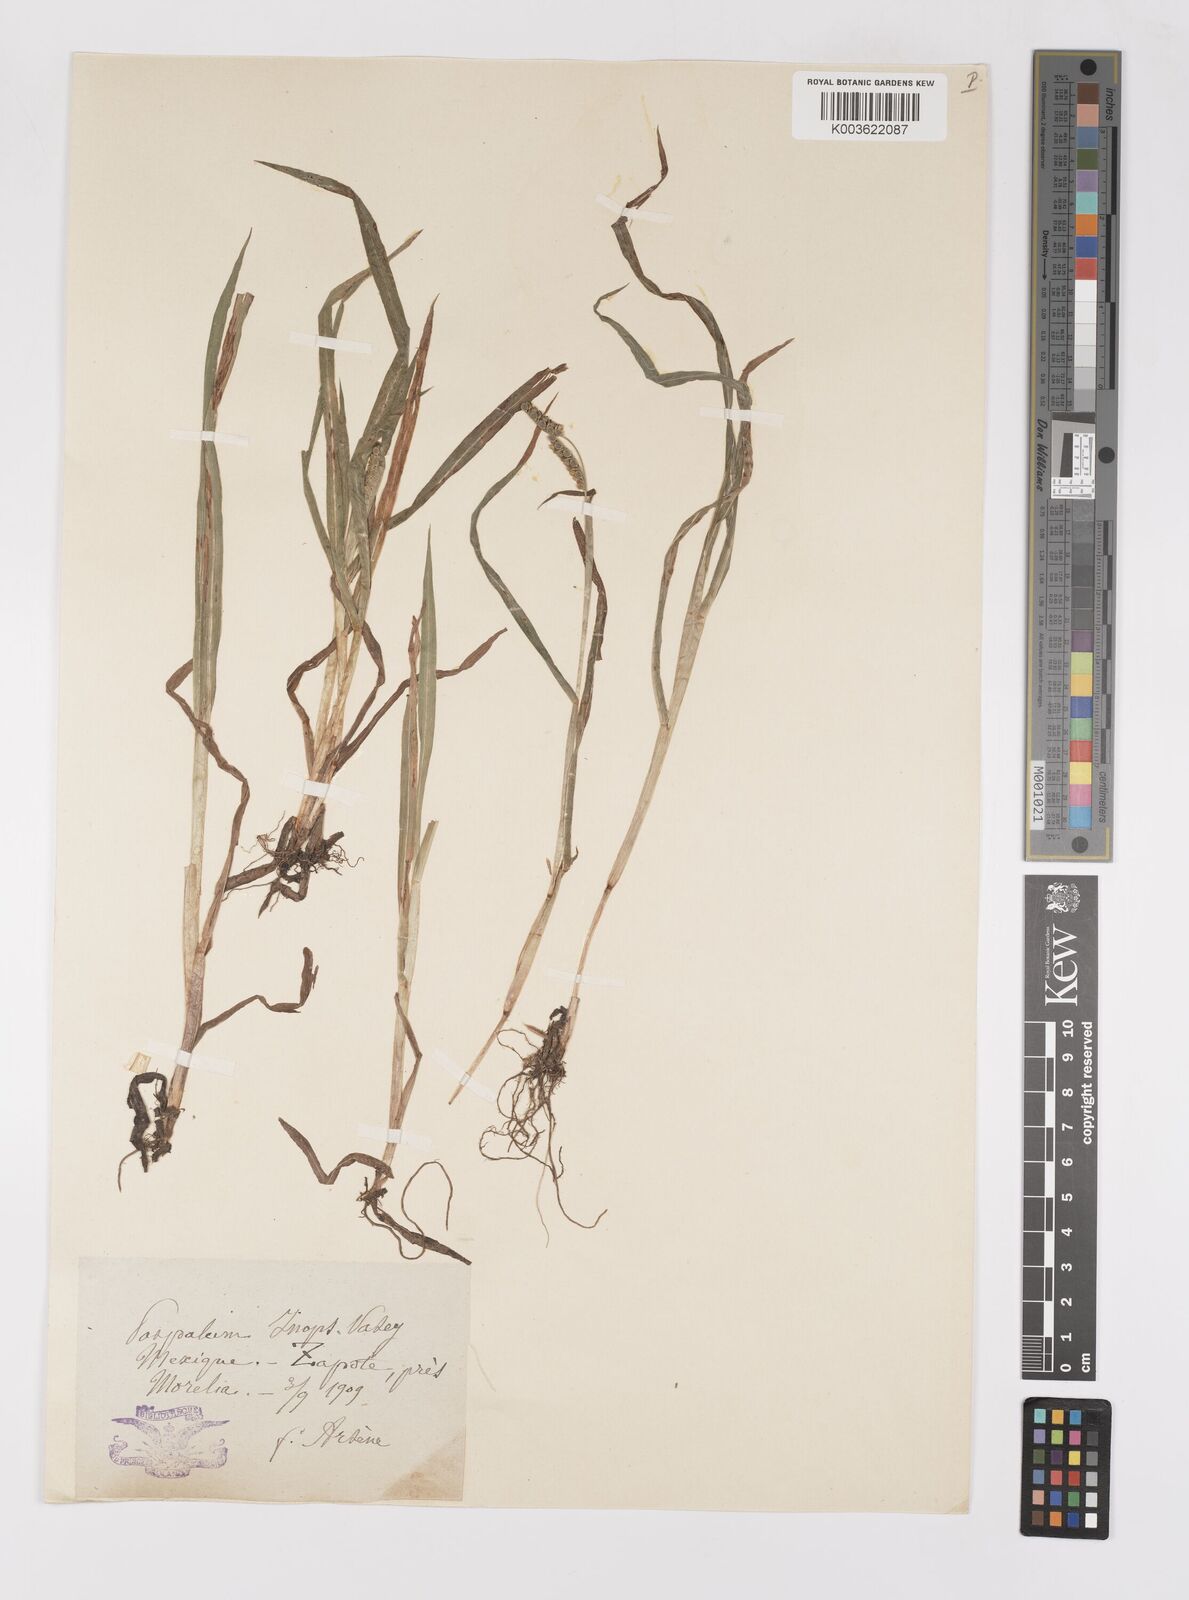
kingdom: Plantae
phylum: Tracheophyta
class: Liliopsida
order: Poales
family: Poaceae
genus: Paspalum
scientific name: Paspalum convexum
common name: Latin american crowngrass
